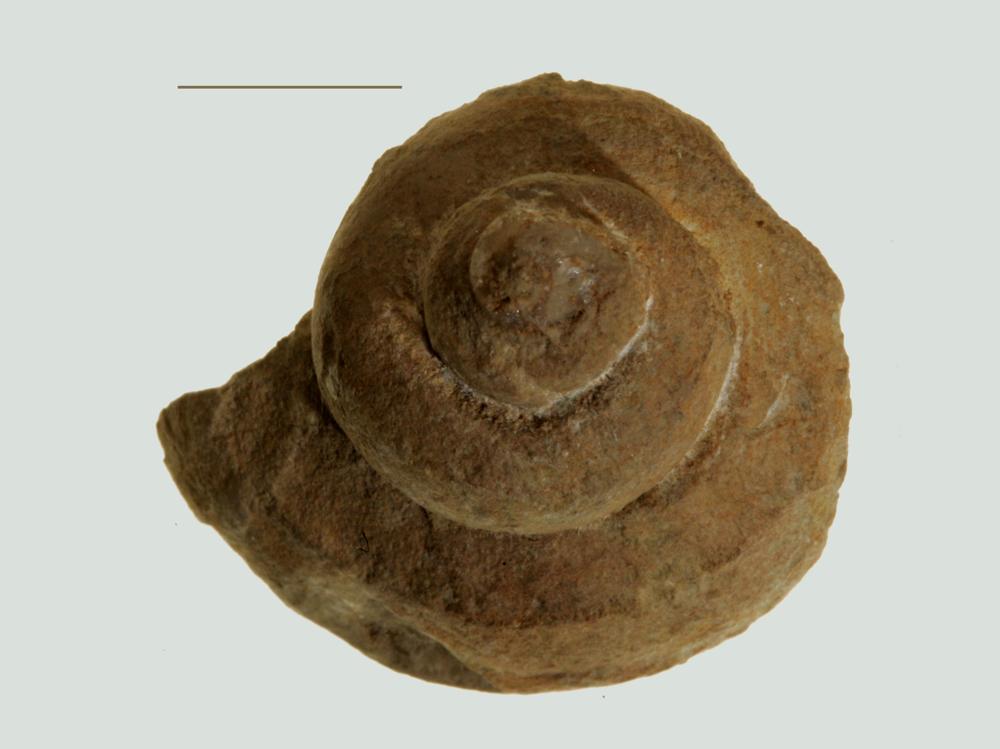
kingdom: Animalia
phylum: Mollusca
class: Gastropoda
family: Euomphalidae
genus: Euomphalus
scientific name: Euomphalus
